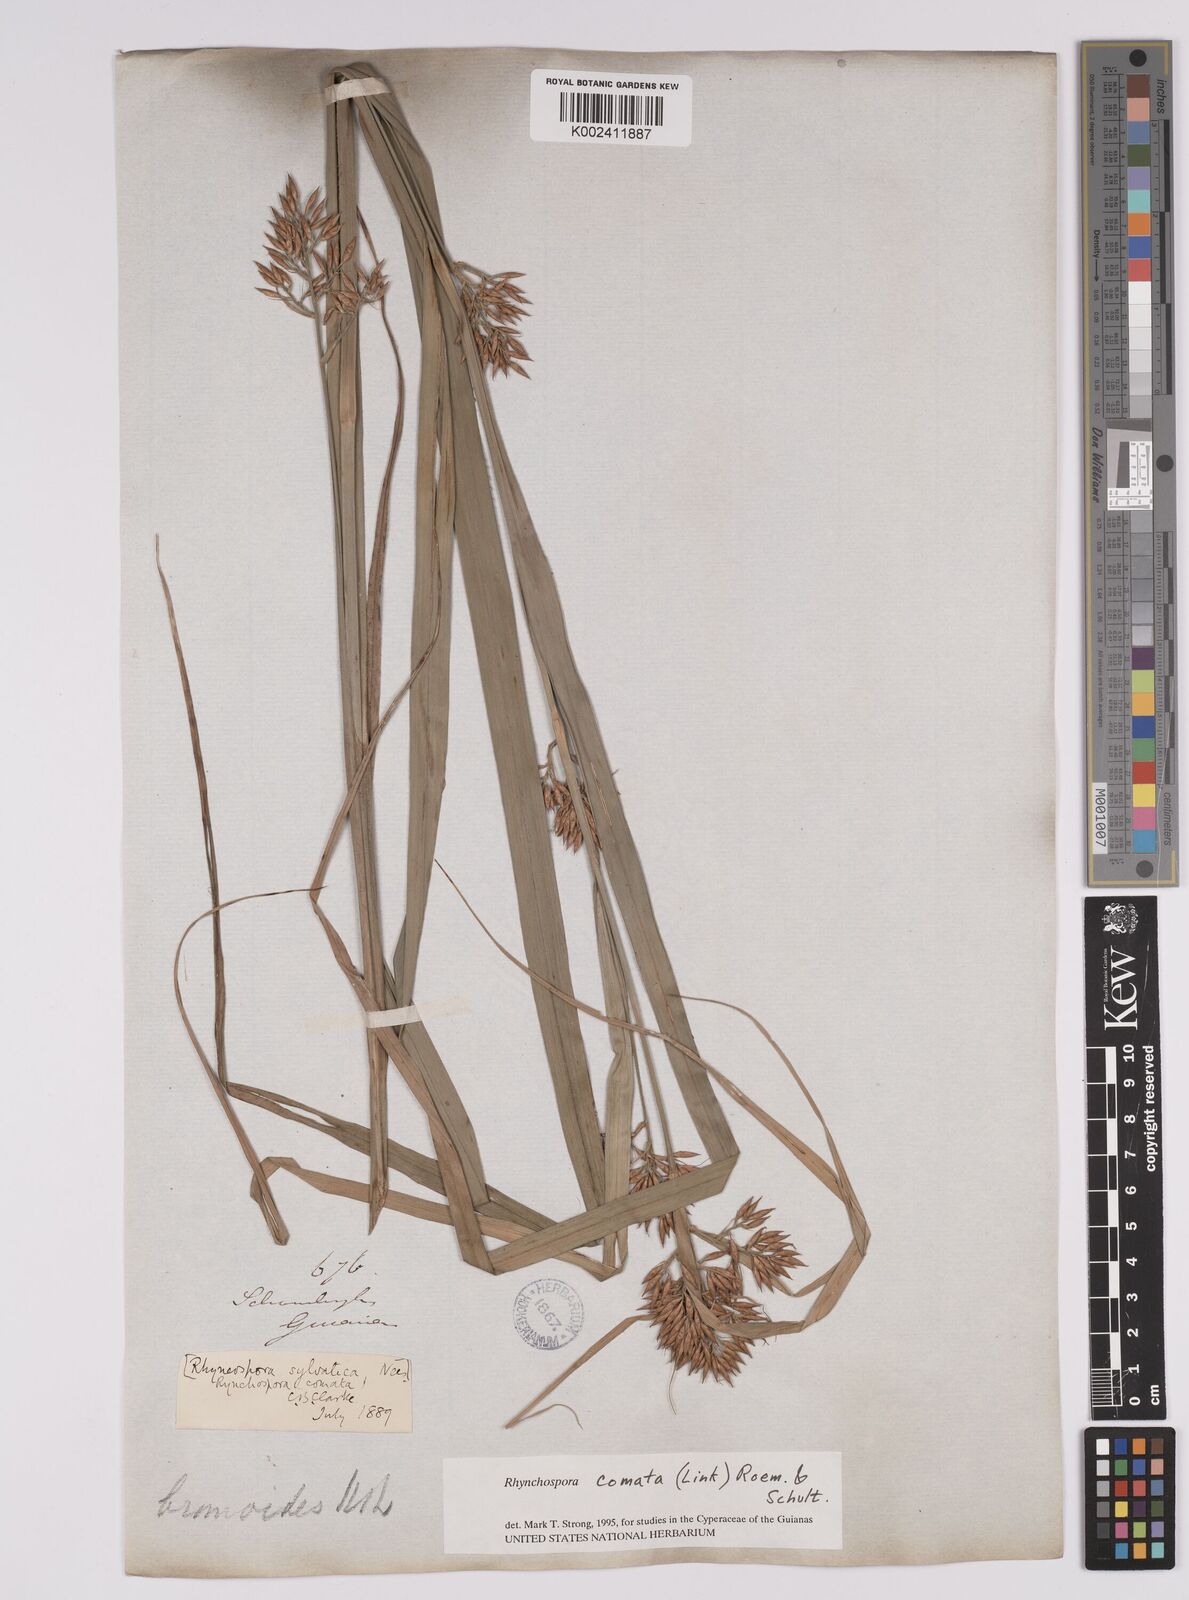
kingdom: Plantae
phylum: Tracheophyta
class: Liliopsida
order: Poales
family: Cyperaceae
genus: Rhynchospora
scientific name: Rhynchospora comata
